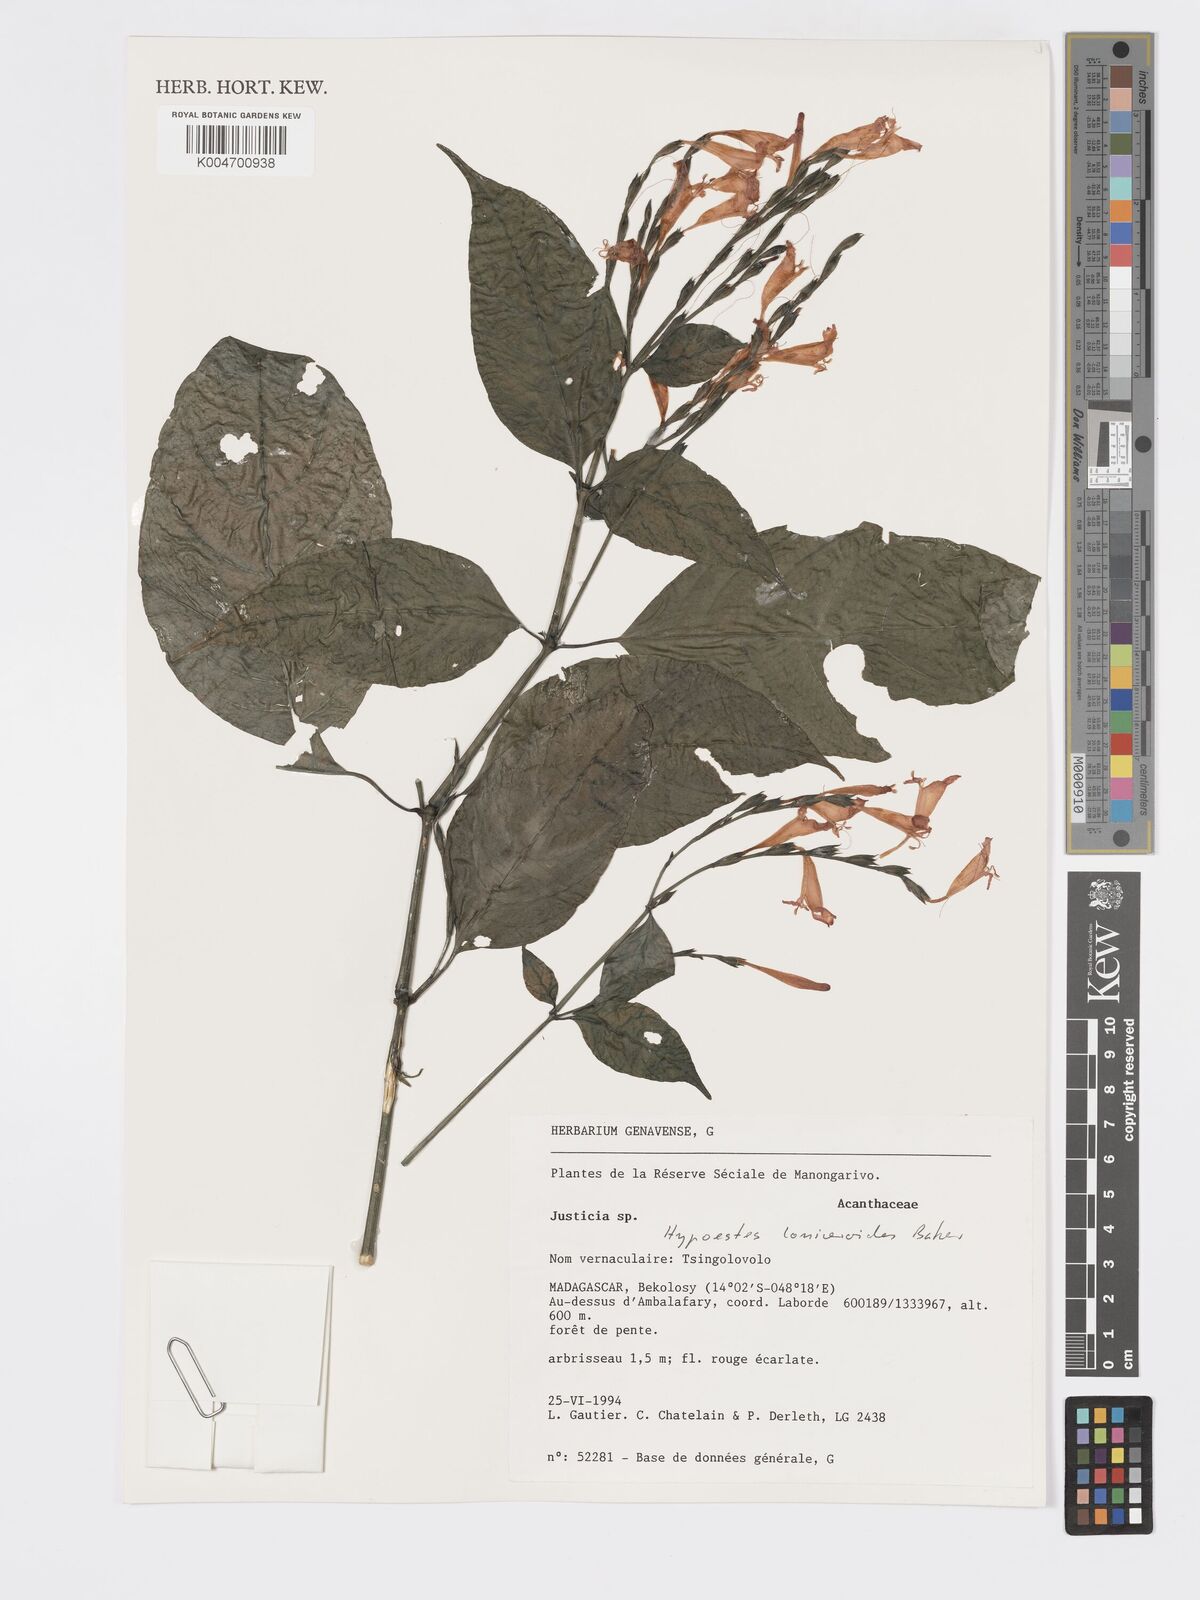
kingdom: Plantae
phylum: Tracheophyta
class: Magnoliopsida
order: Lamiales
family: Acanthaceae
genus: Hypoestes
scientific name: Hypoestes
